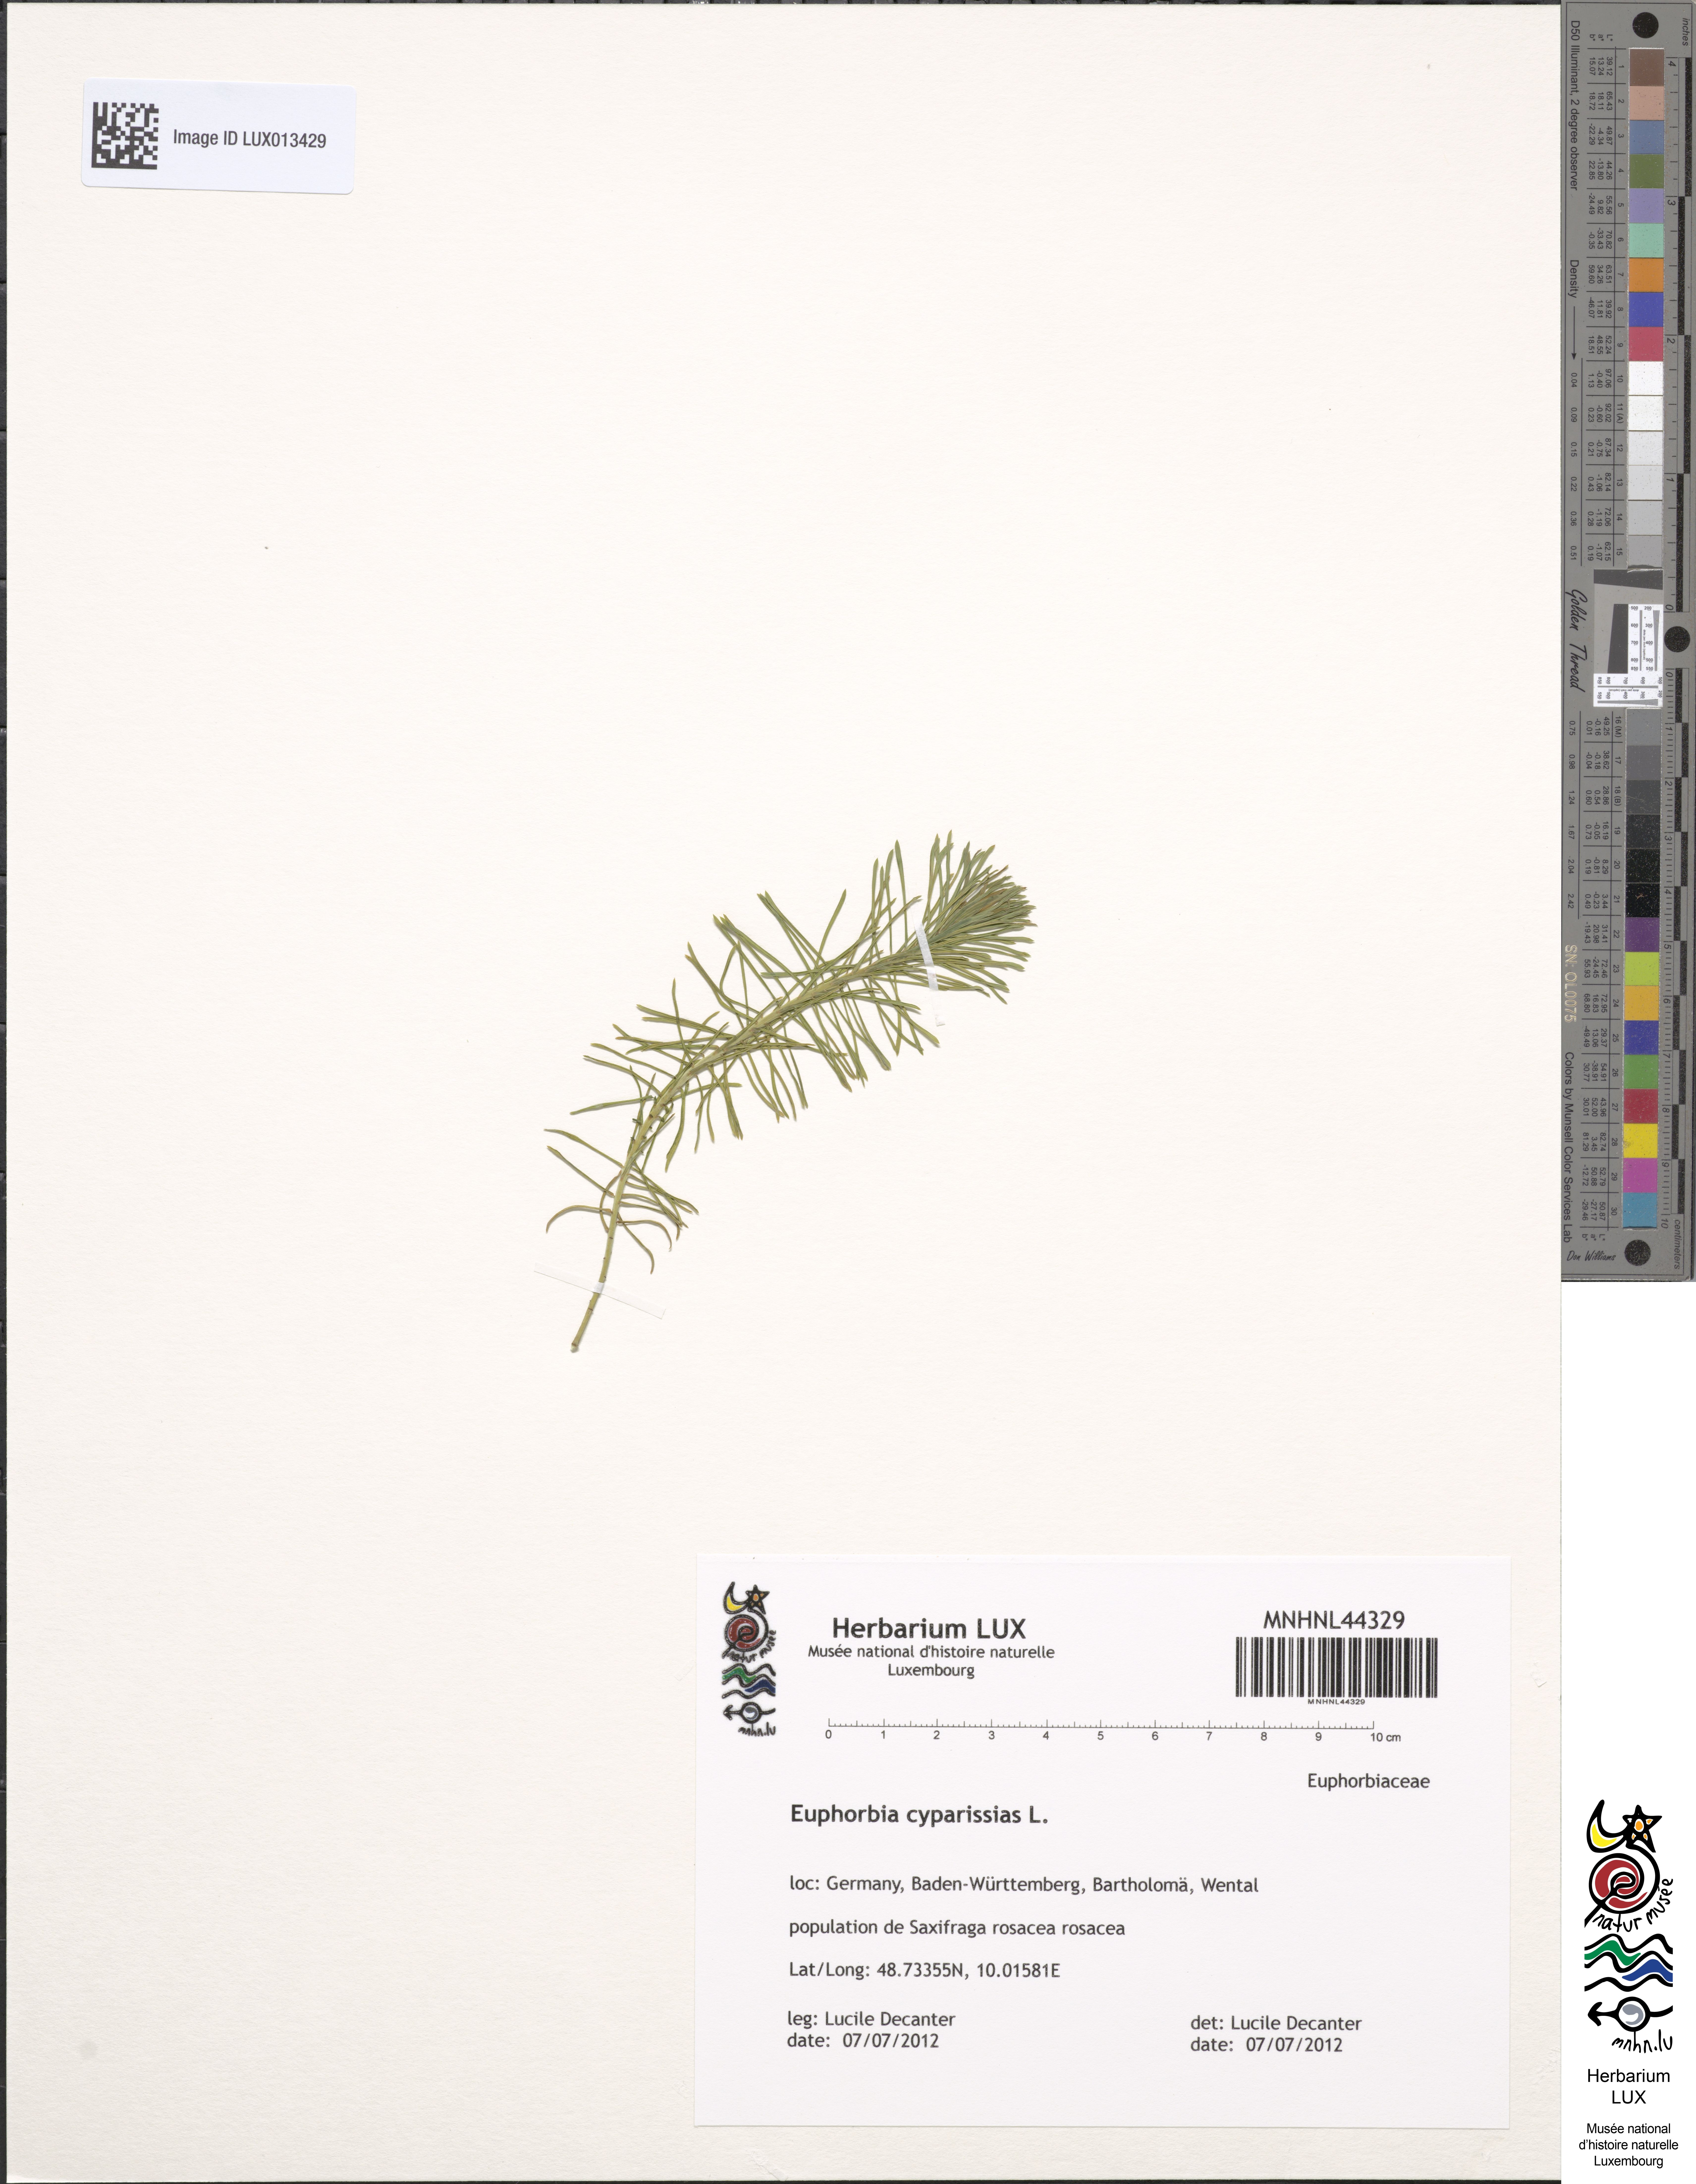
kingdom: Plantae
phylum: Tracheophyta
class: Magnoliopsida
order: Malpighiales
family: Euphorbiaceae
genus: Euphorbia
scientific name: Euphorbia cyparissias
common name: Cypress spurge
